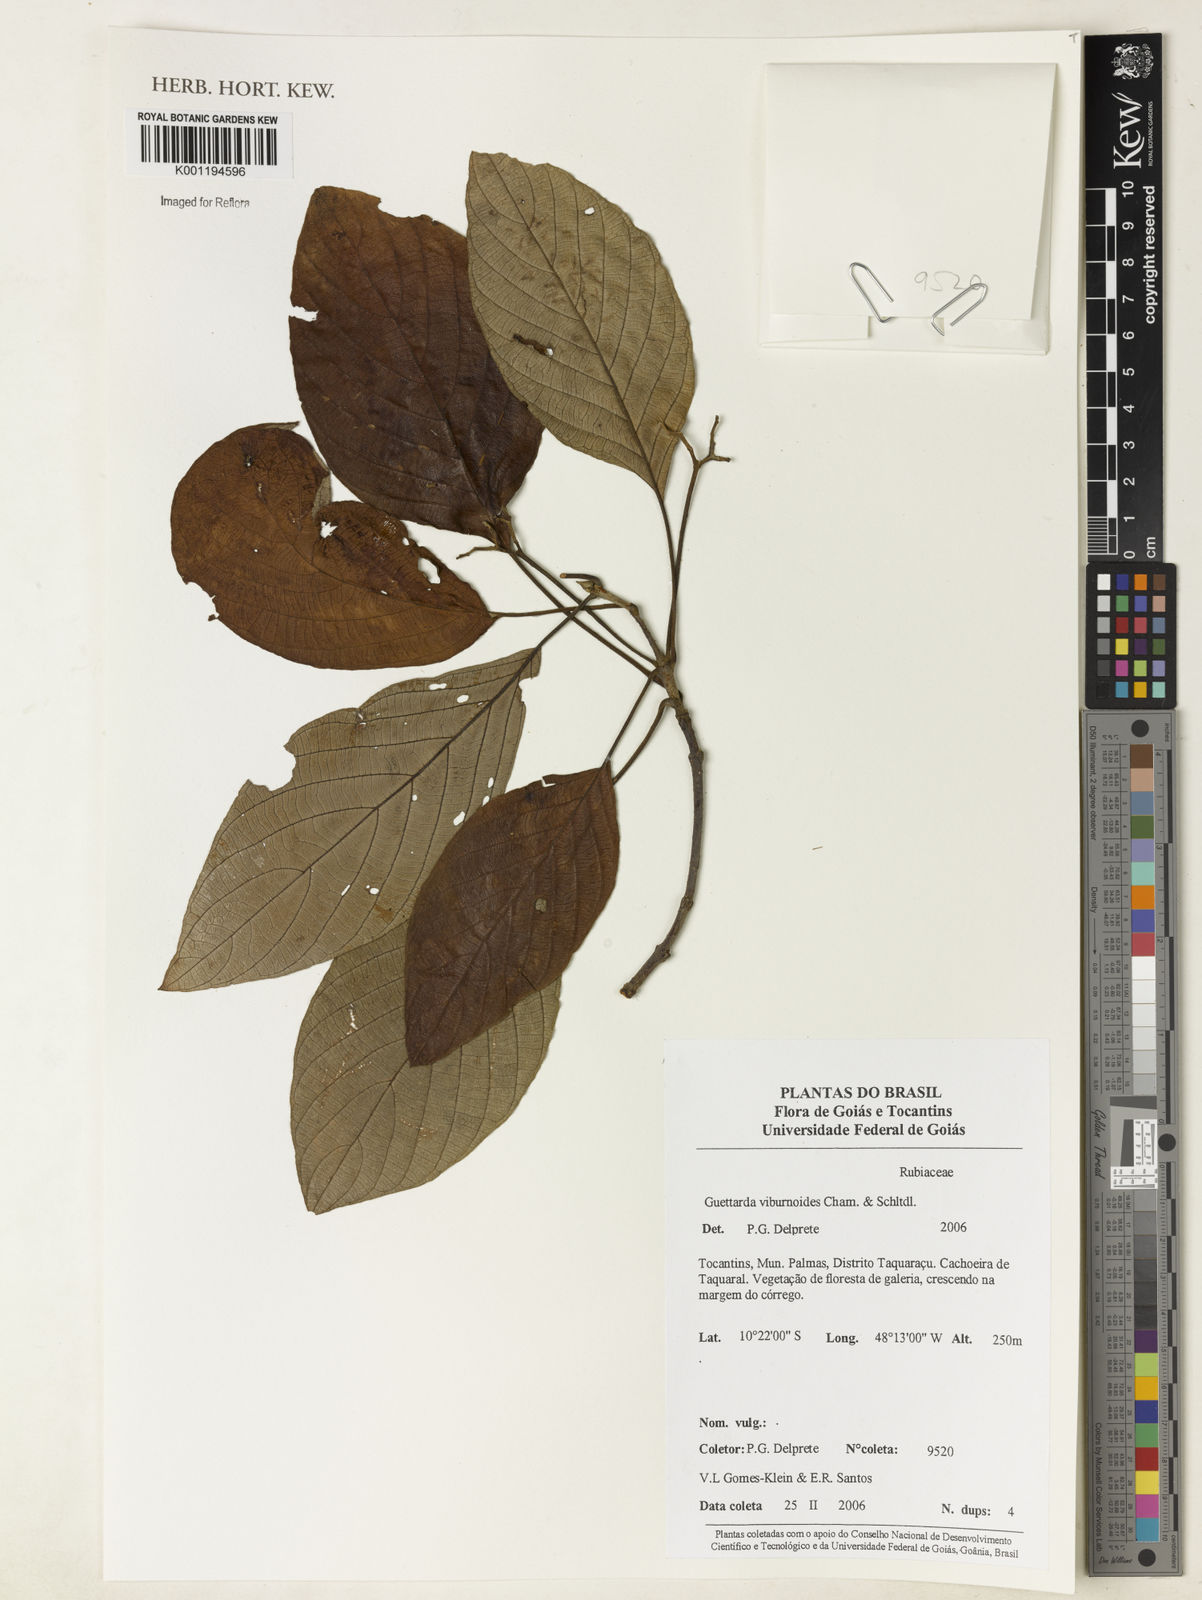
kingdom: Plantae
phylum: Tracheophyta
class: Magnoliopsida
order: Gentianales
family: Rubiaceae
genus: Guettarda
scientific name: Guettarda viburnoides
